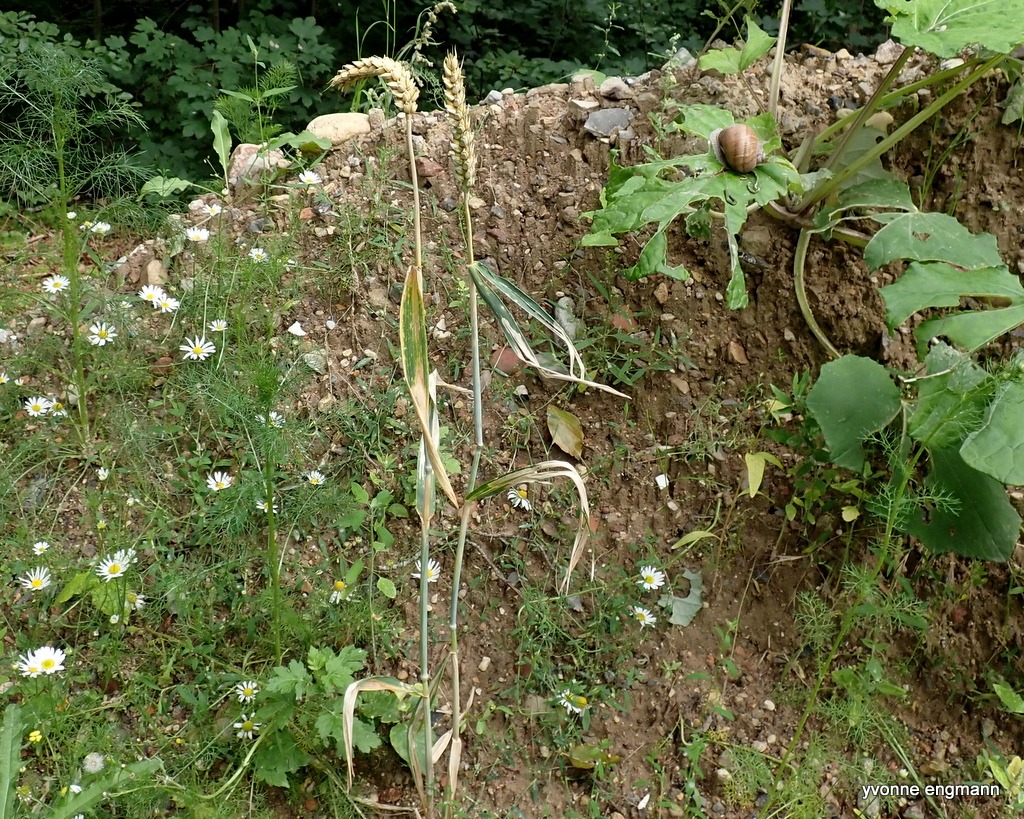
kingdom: Plantae
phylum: Tracheophyta
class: Liliopsida
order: Poales
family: Poaceae
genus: Triticum
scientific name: Triticum aestivum
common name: Almindelig hvede
